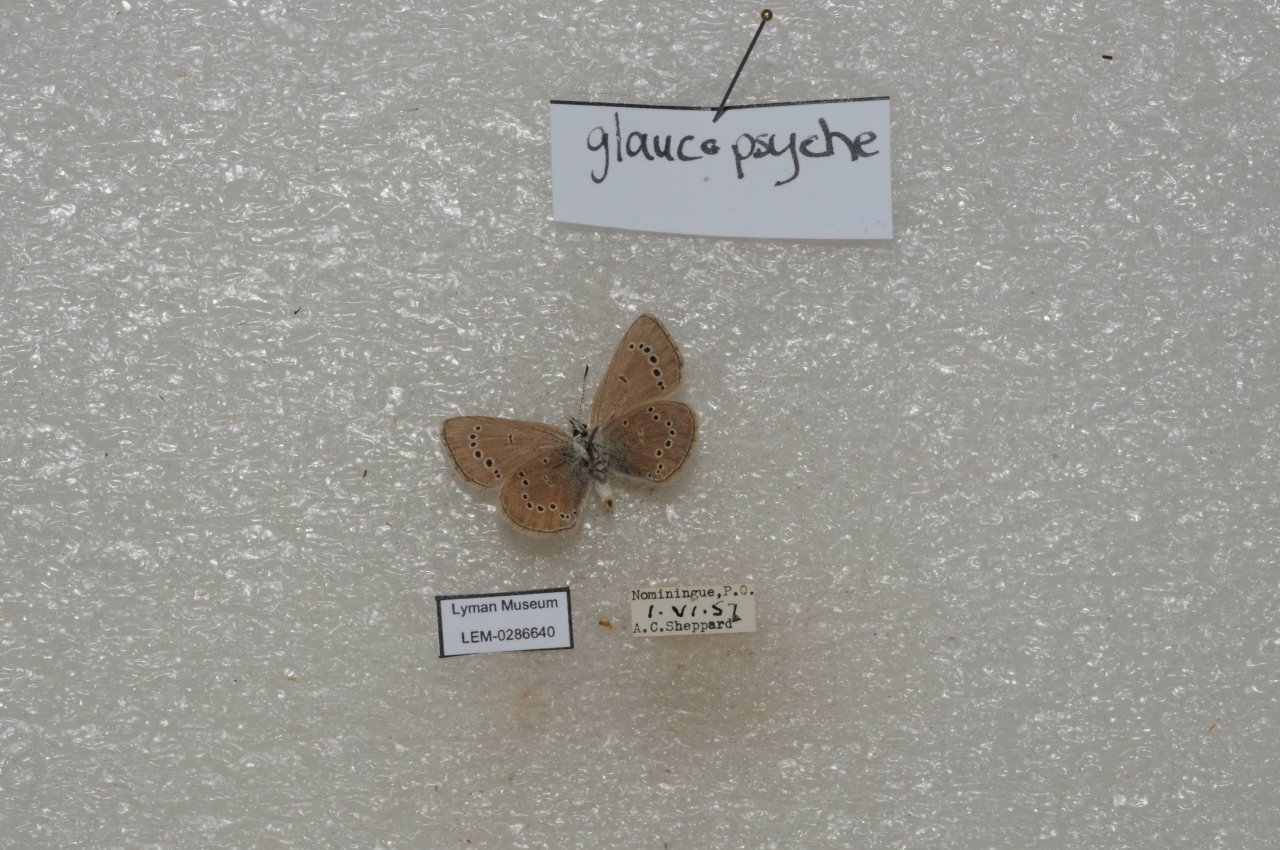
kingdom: Animalia
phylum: Arthropoda
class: Insecta
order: Lepidoptera
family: Lycaenidae
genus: Glaucopsyche
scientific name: Glaucopsyche lygdamus
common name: Silvery Blue
